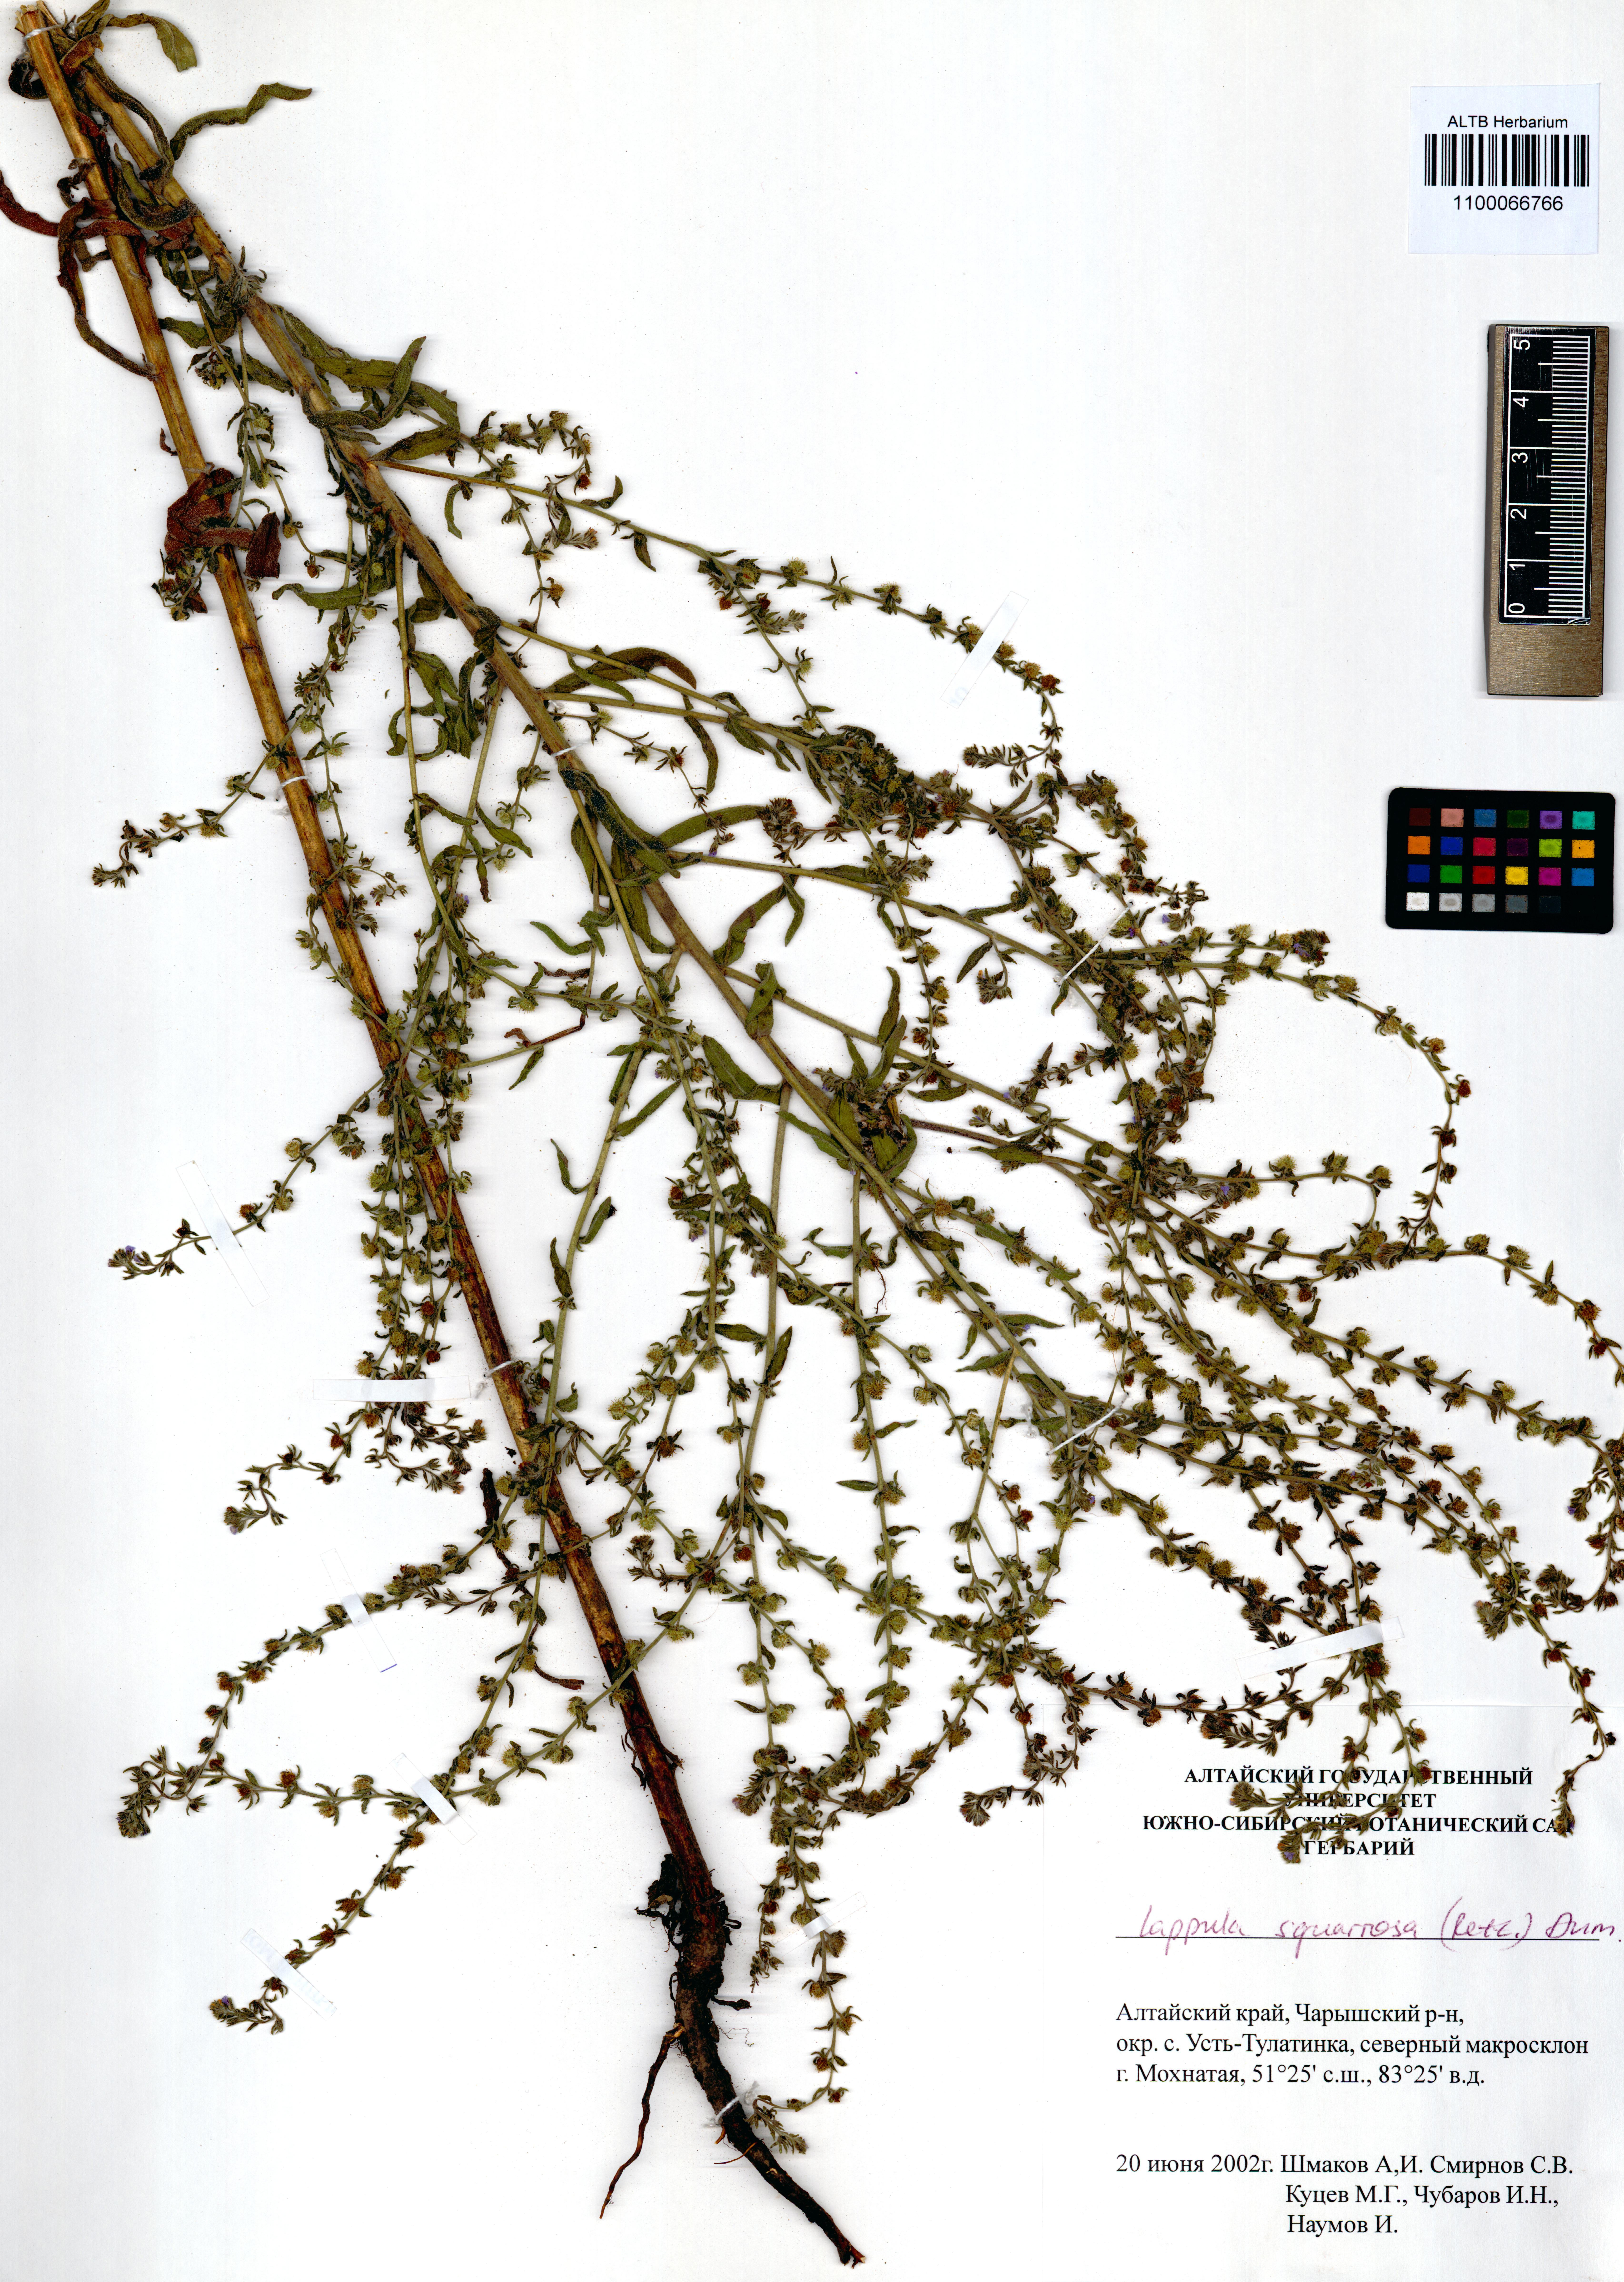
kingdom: Plantae
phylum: Tracheophyta
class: Magnoliopsida
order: Boraginales
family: Boraginaceae
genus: Lappula
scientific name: Lappula squarrosa
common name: European stickseed
